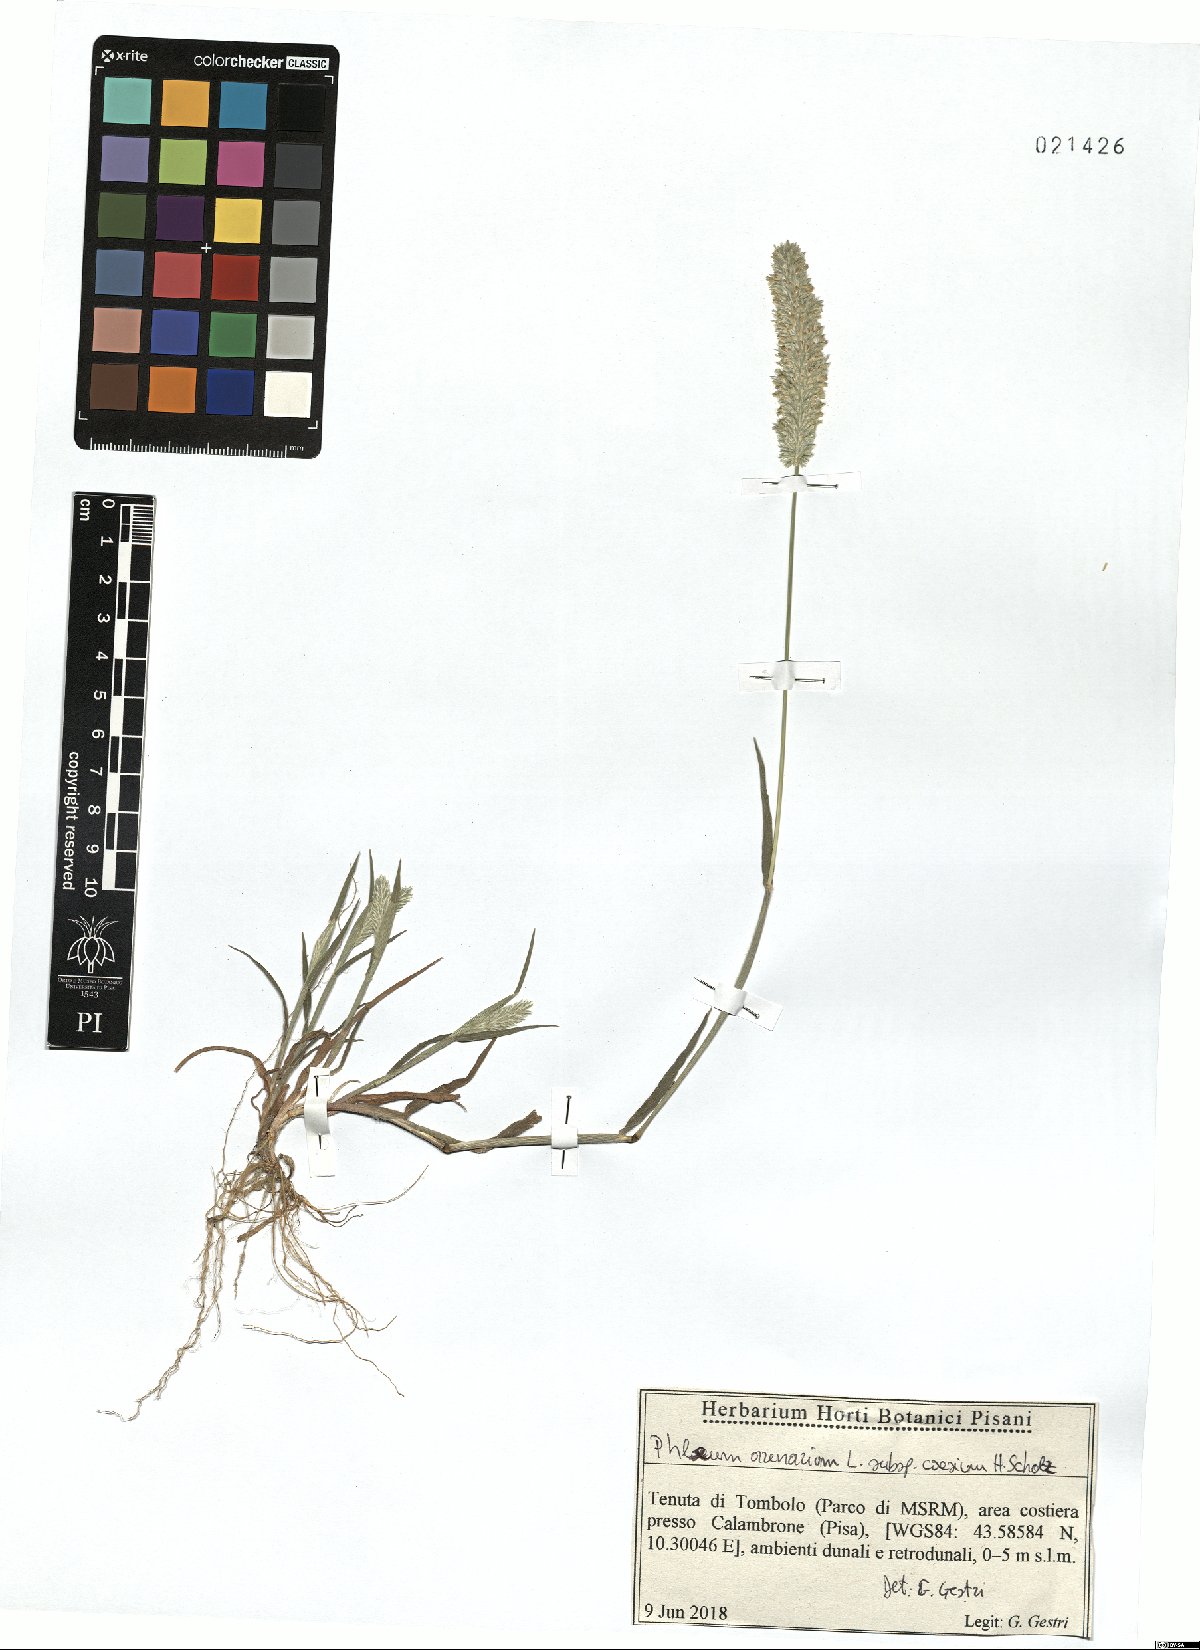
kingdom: Plantae
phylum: Tracheophyta
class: Liliopsida
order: Poales
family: Poaceae
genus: Phleum
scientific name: Phleum arenarium
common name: Sand cat's-tail
